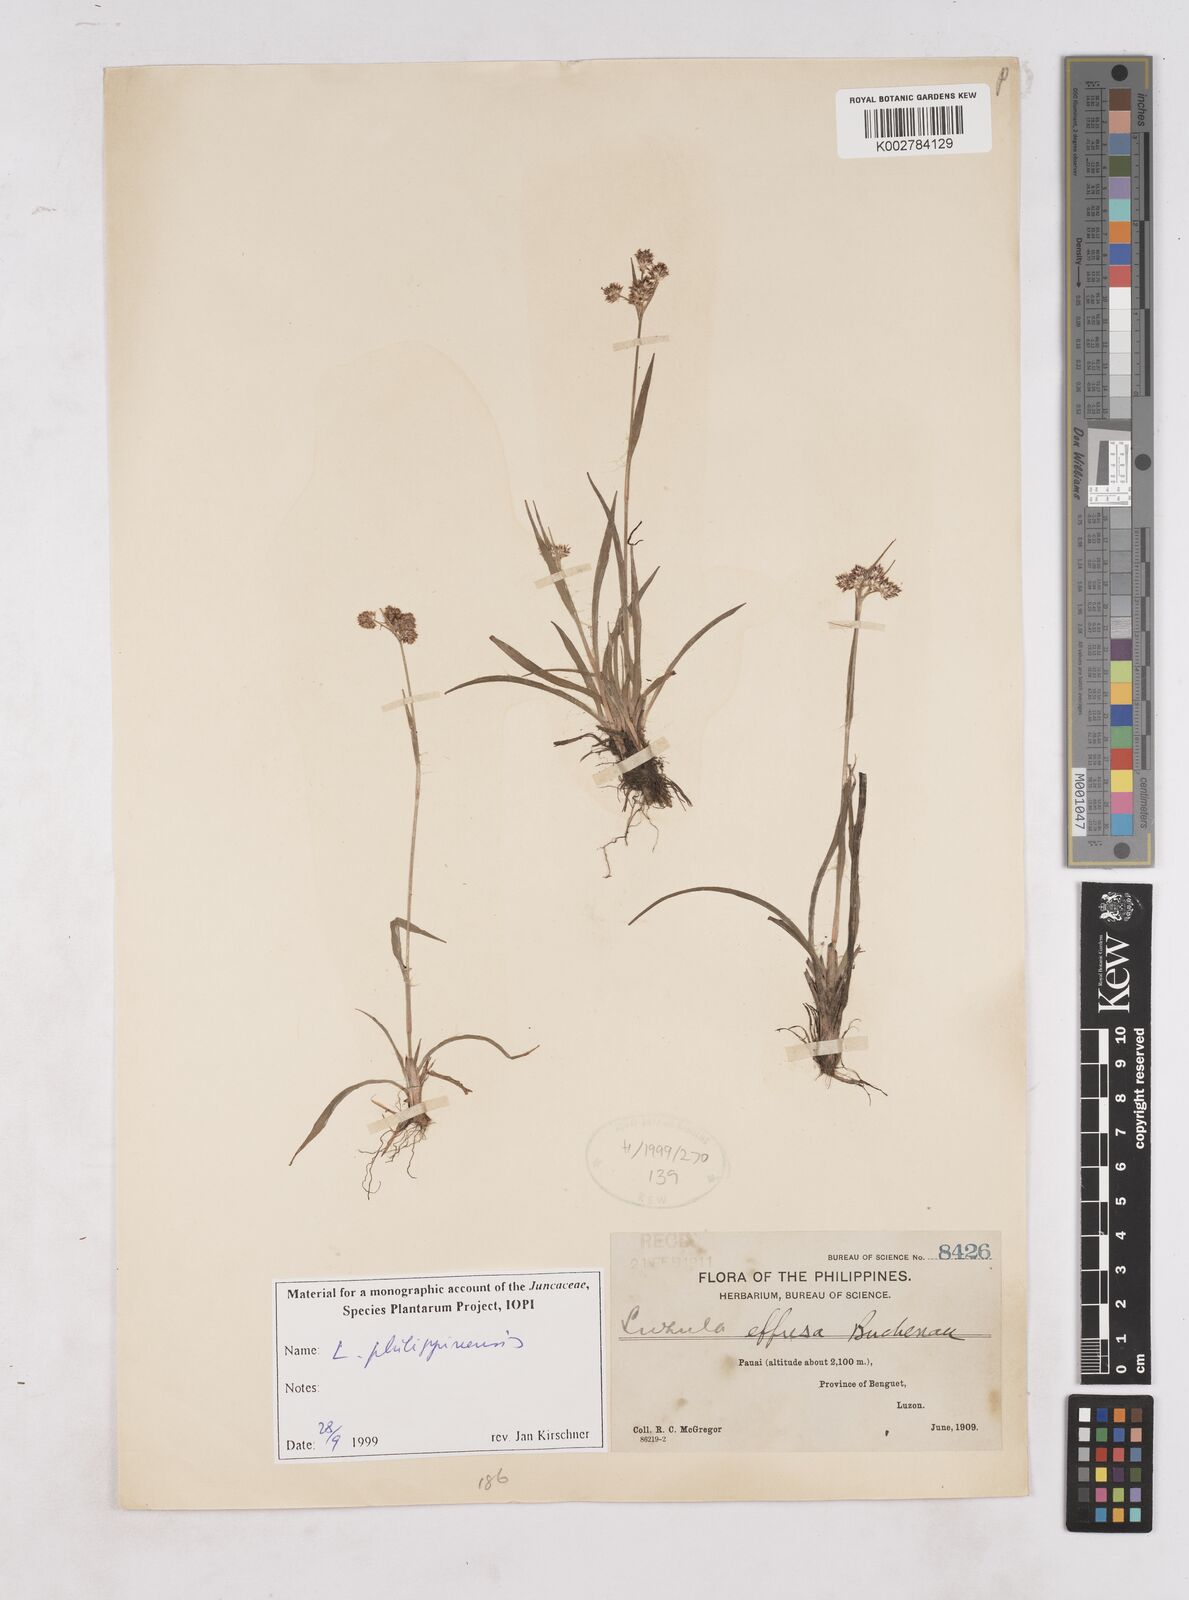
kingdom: Plantae
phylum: Tracheophyta
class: Liliopsida
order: Poales
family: Juncaceae
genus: Luzula
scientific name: Luzula philippinensis
